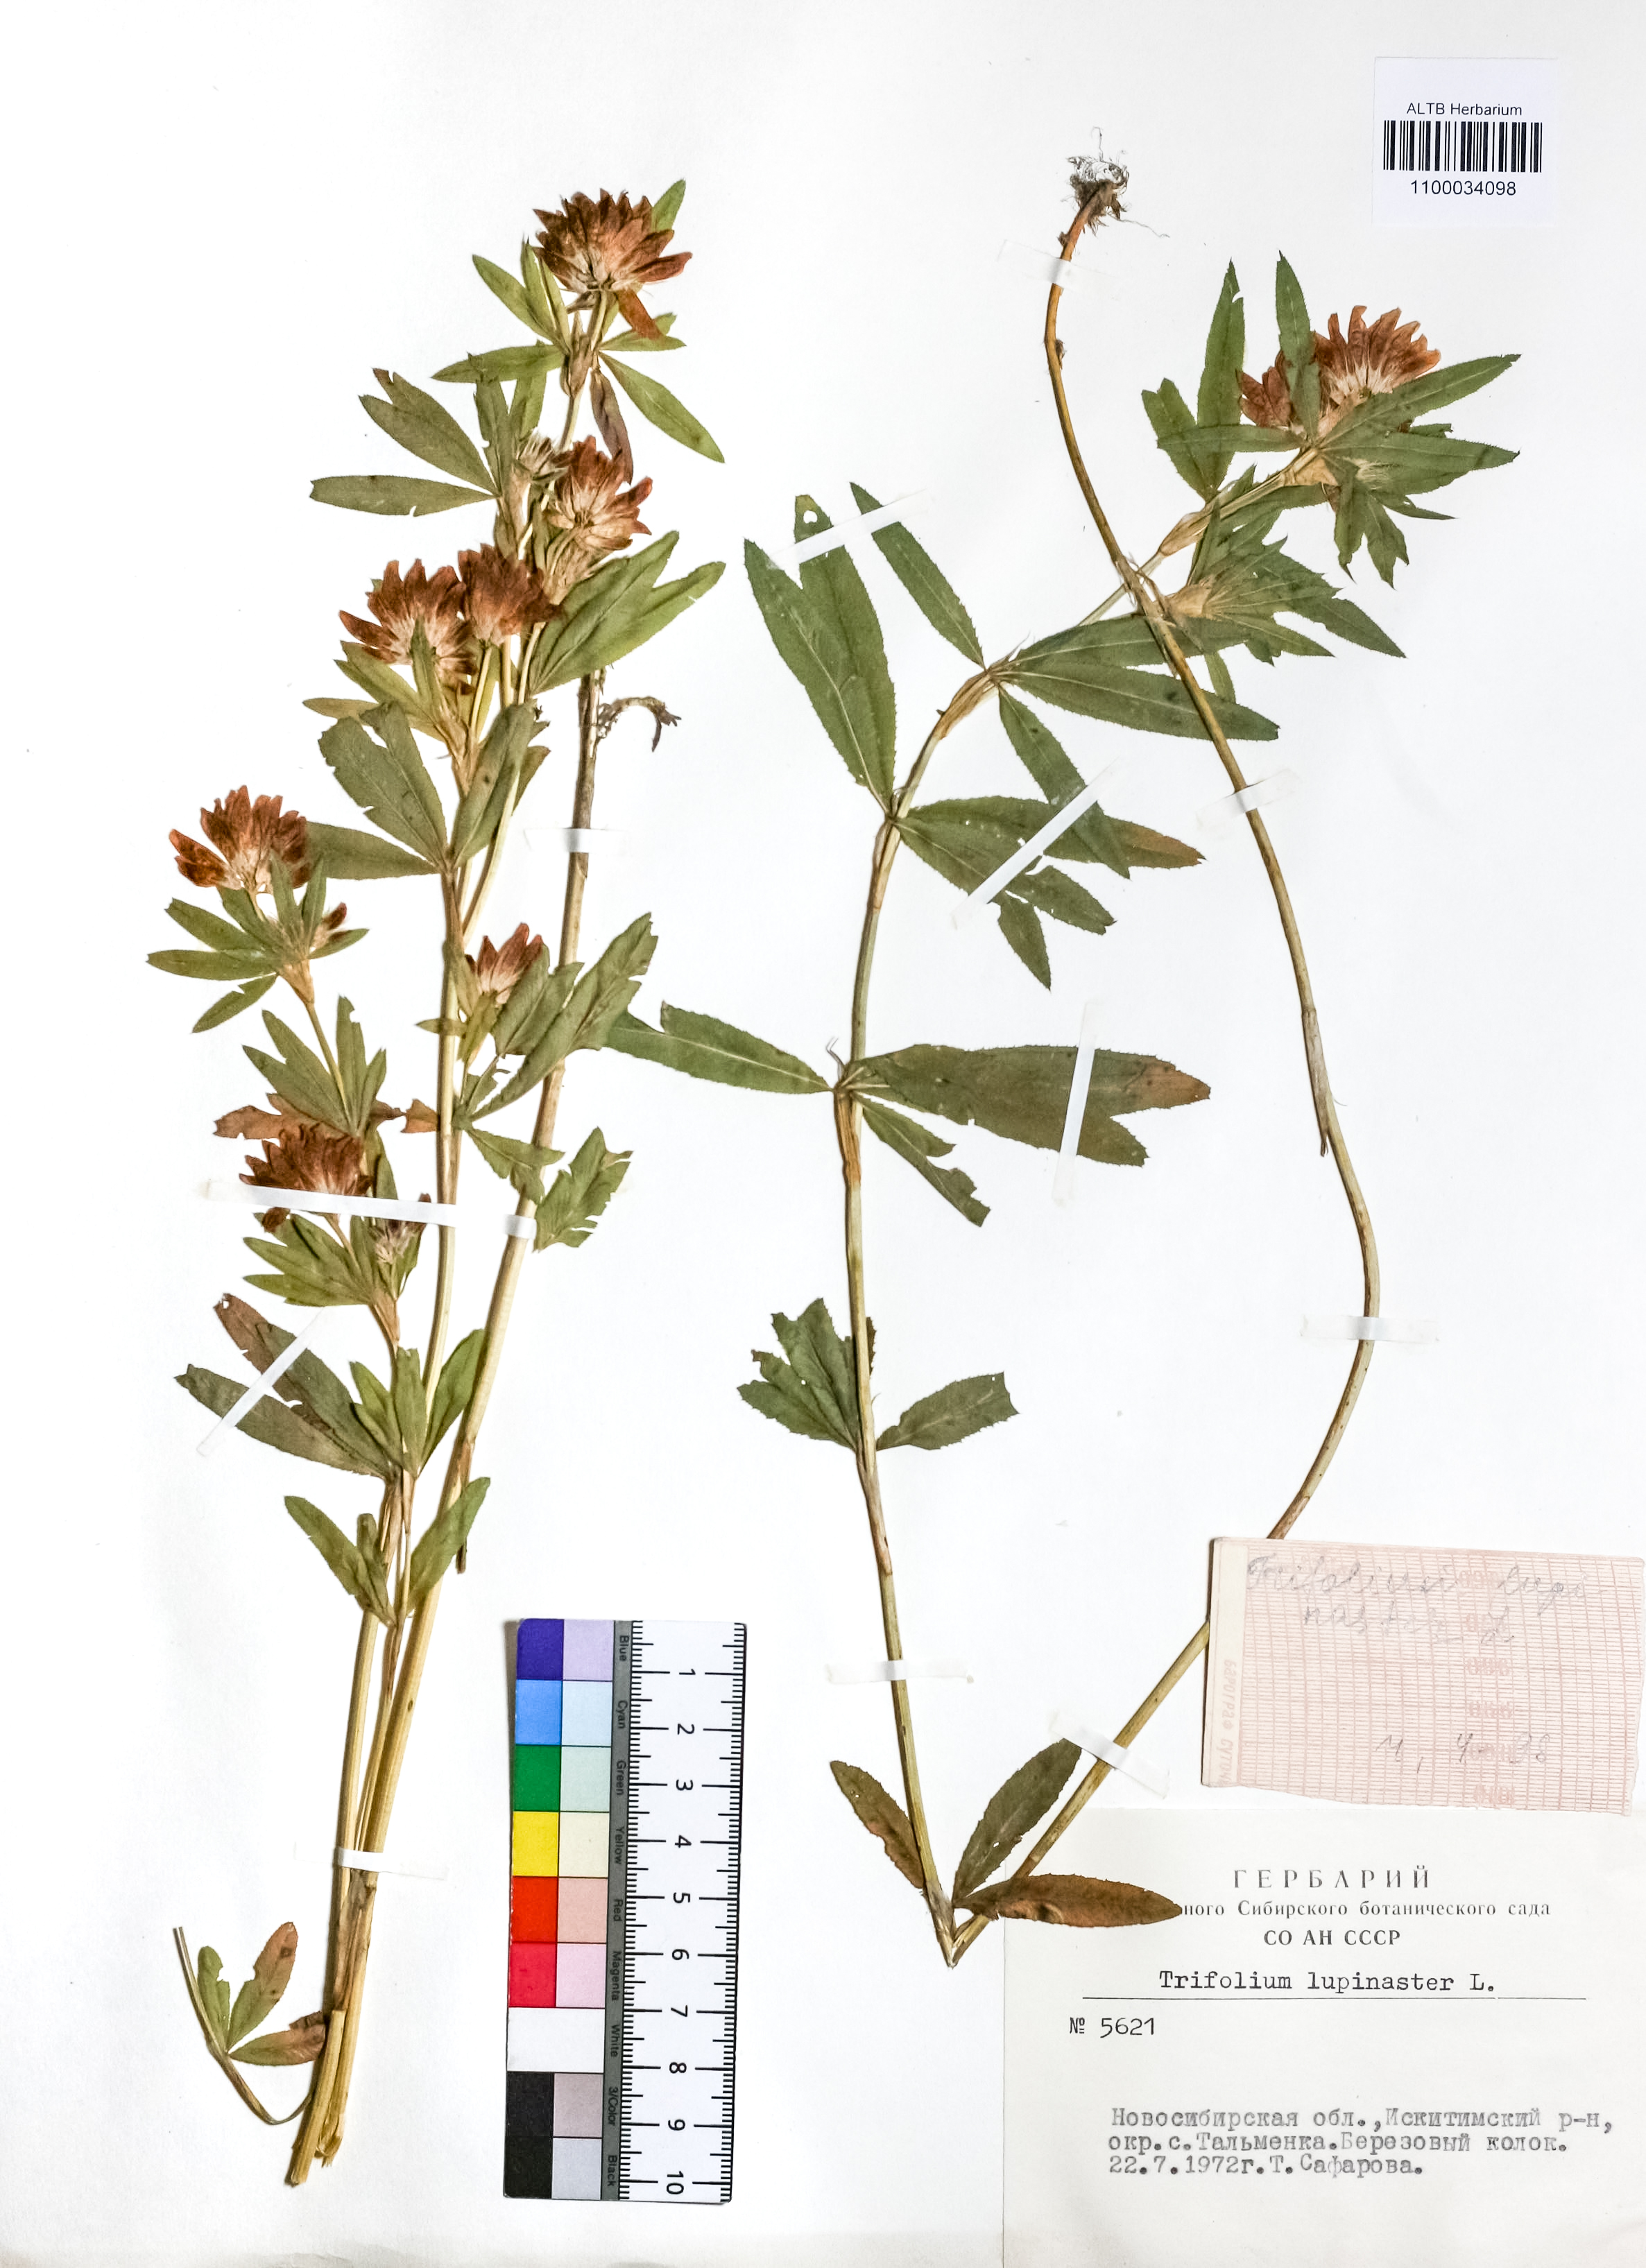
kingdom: Plantae
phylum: Tracheophyta
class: Magnoliopsida
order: Fabales
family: Fabaceae
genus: Trifolium
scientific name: Trifolium lupinaster
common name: Lupine clover
